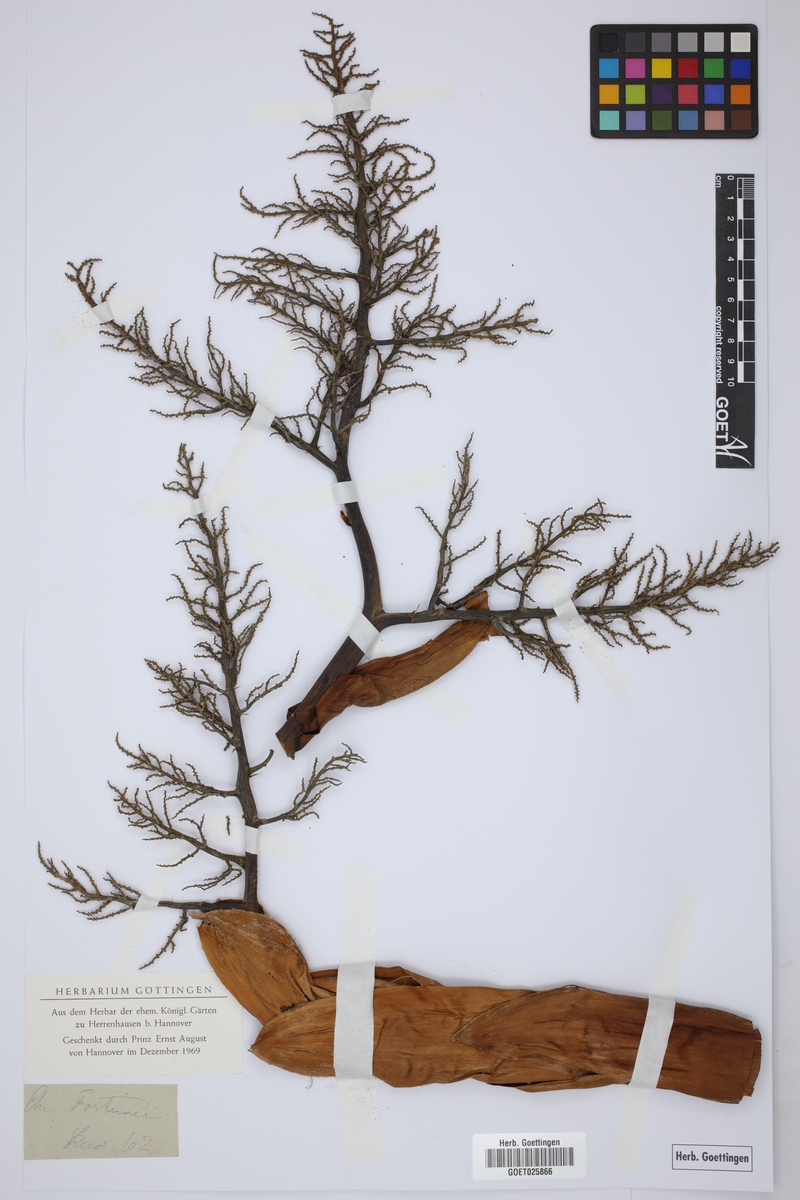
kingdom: Plantae
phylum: Tracheophyta
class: Liliopsida
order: Arecales
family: Arecaceae
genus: Trachycarpus
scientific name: Trachycarpus fortunei
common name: Chusan palm
